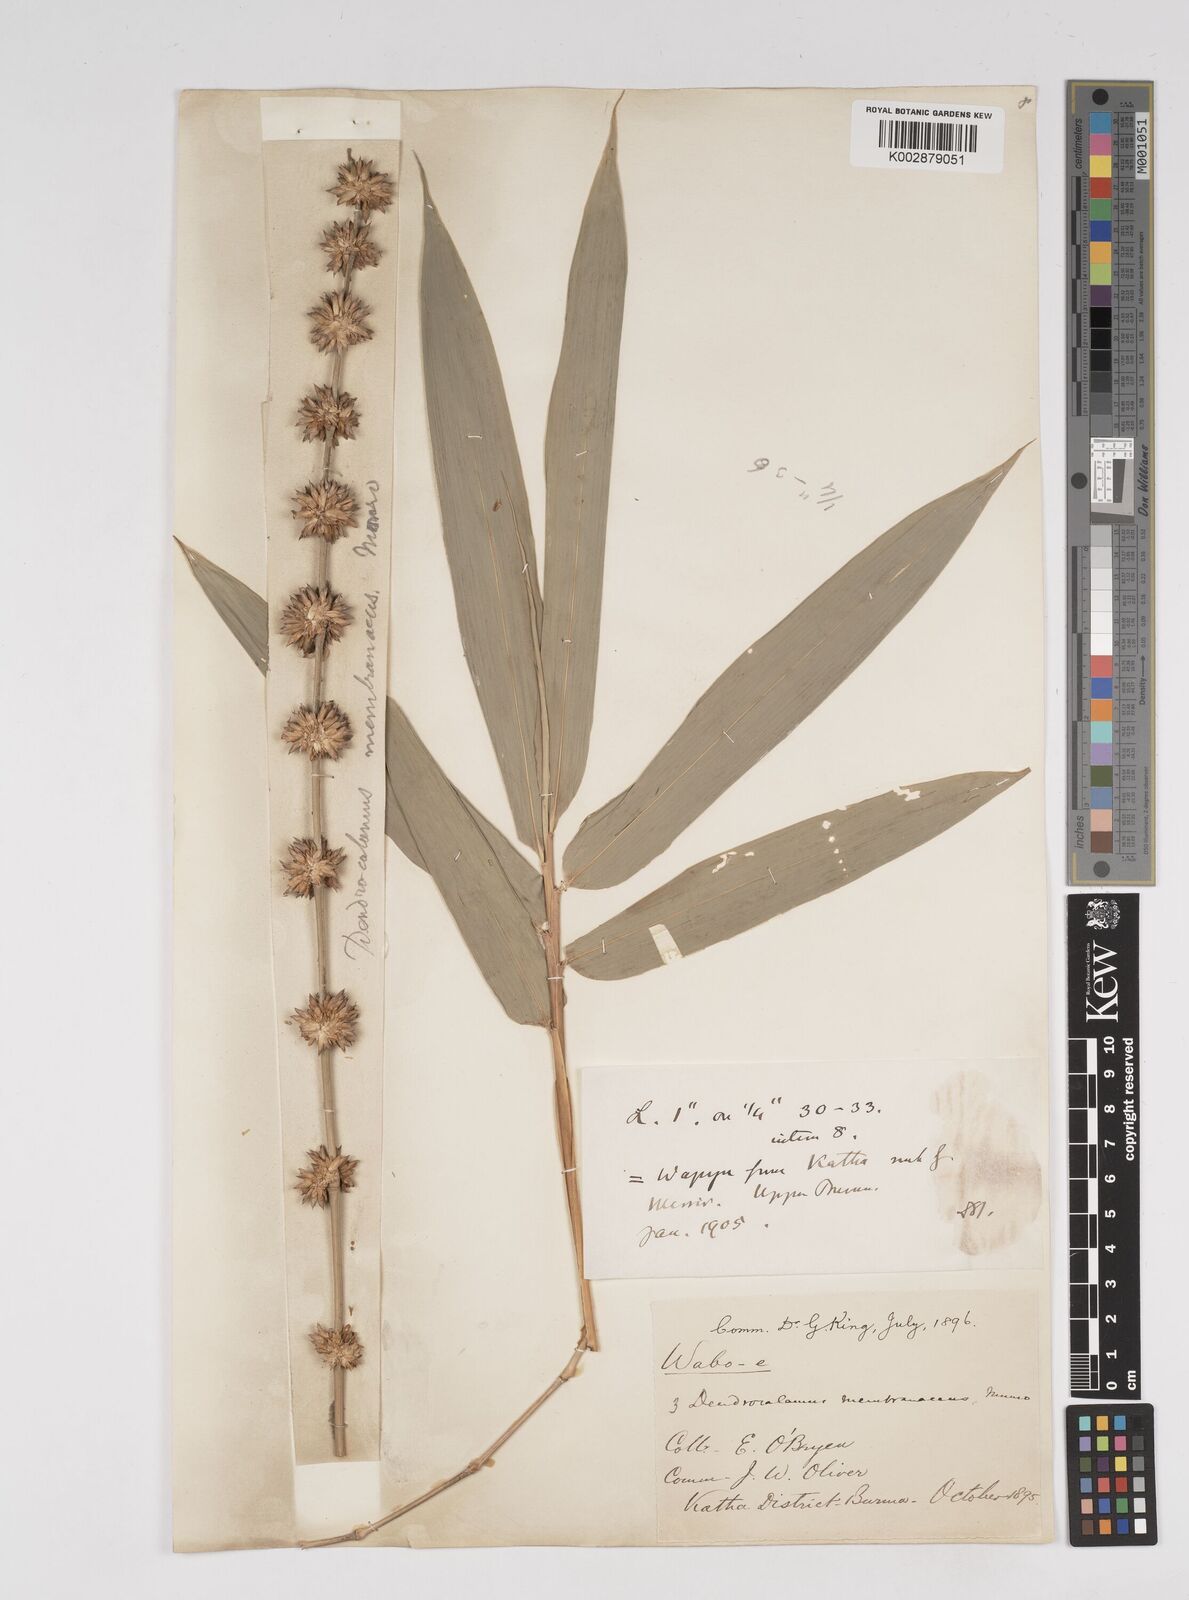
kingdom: Plantae
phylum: Tracheophyta
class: Liliopsida
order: Poales
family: Poaceae
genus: Dendrocalamus
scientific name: Dendrocalamus membranaceus
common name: White bamboo
